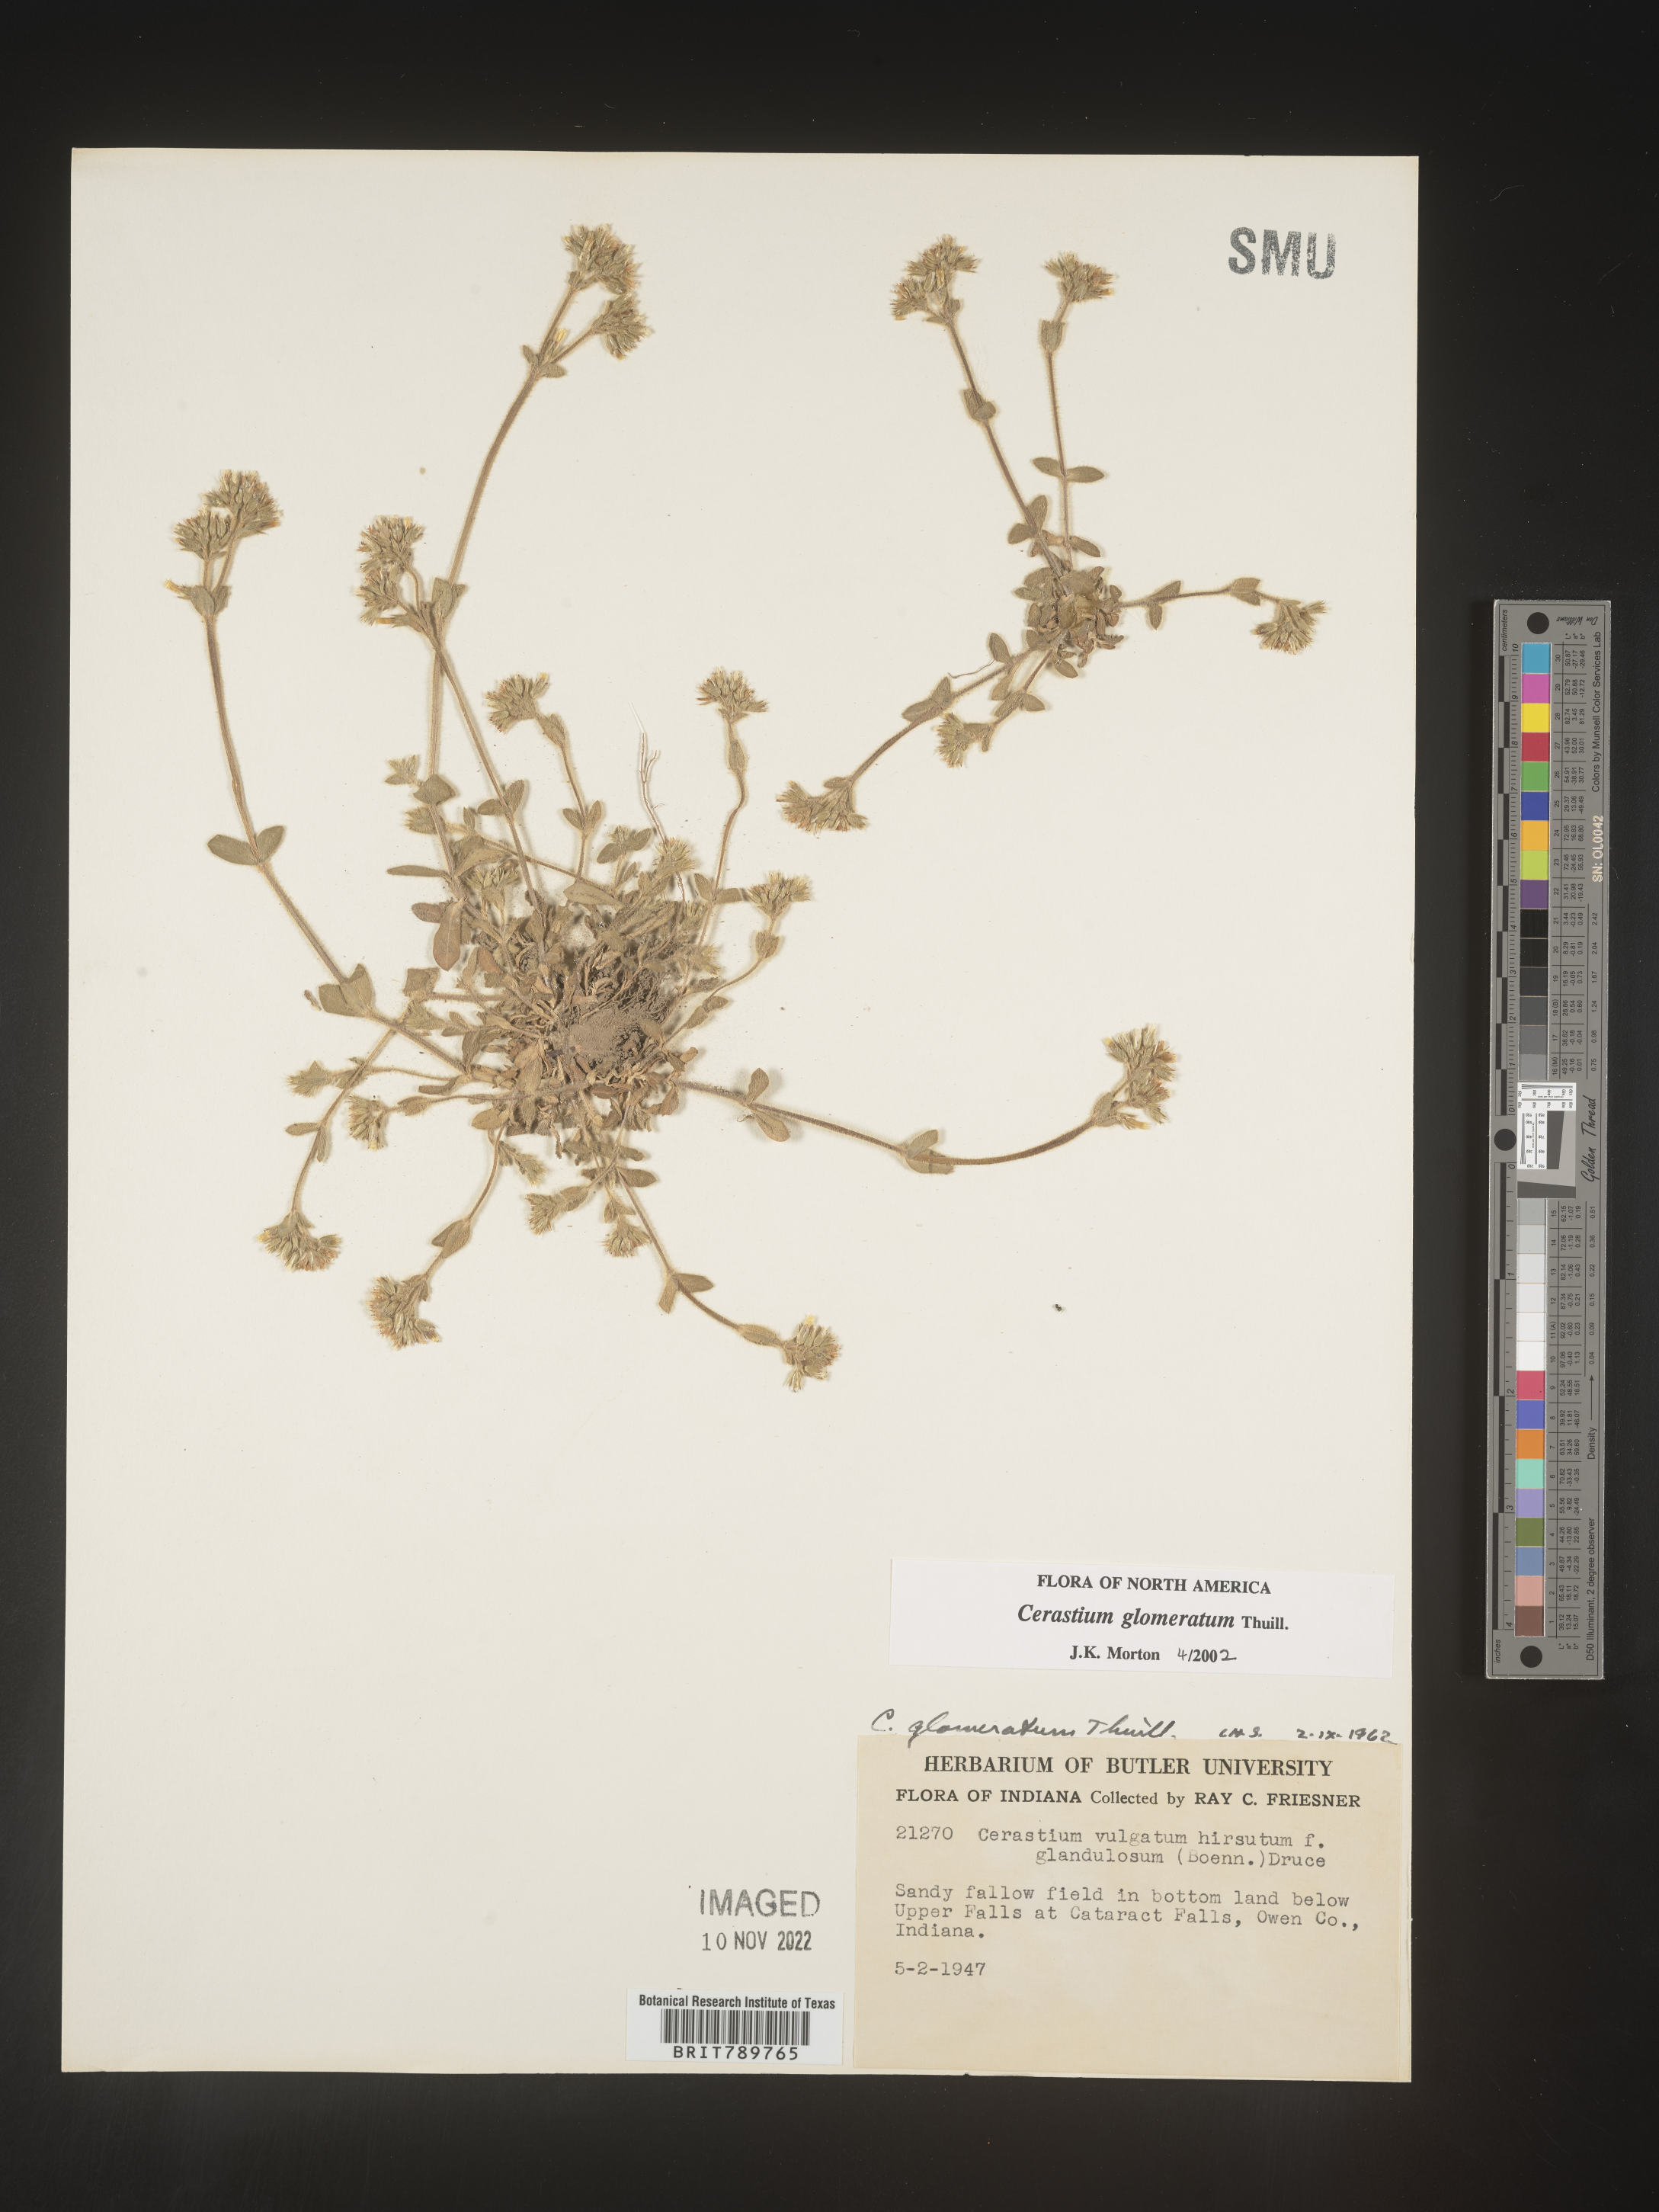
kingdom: Plantae
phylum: Tracheophyta
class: Magnoliopsida
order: Caryophyllales
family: Caryophyllaceae
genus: Cerastium
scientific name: Cerastium glomeratum
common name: Sticky chickweed
